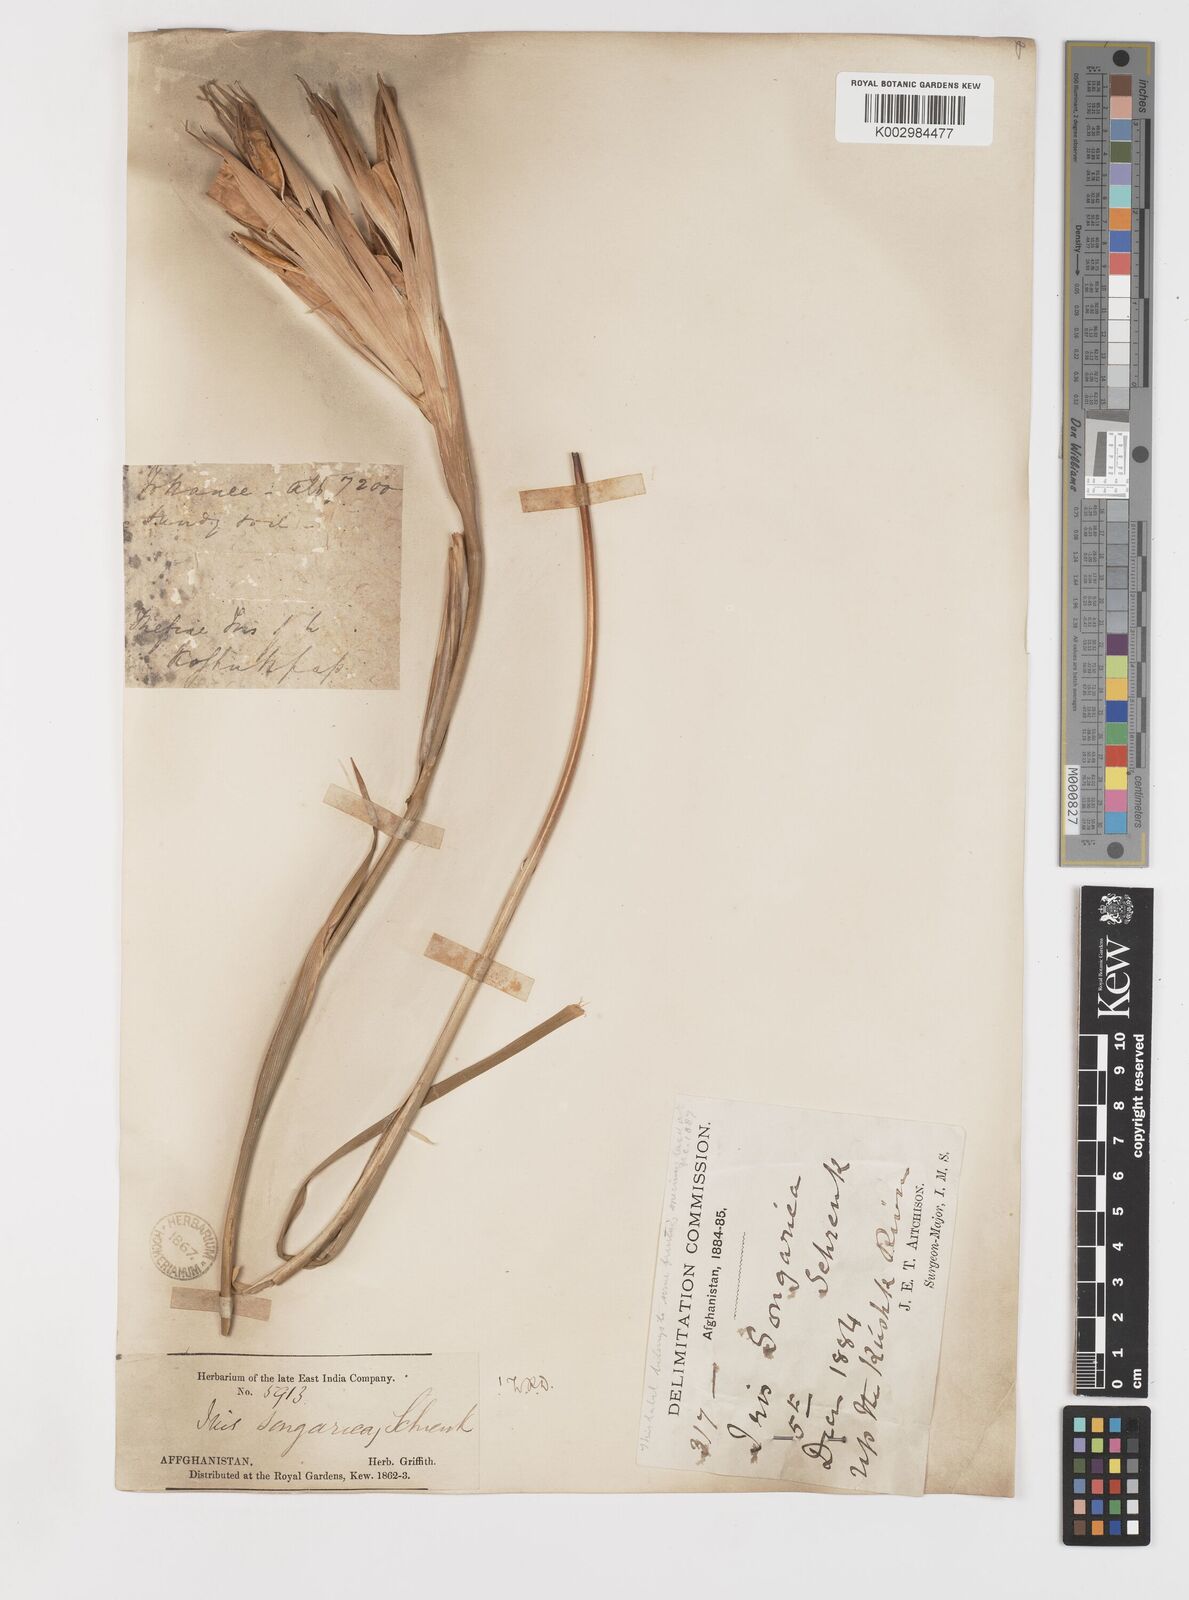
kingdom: Plantae
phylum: Tracheophyta
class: Liliopsida
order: Asparagales
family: Iridaceae
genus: Iris
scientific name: Iris songarica
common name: Songar iris
